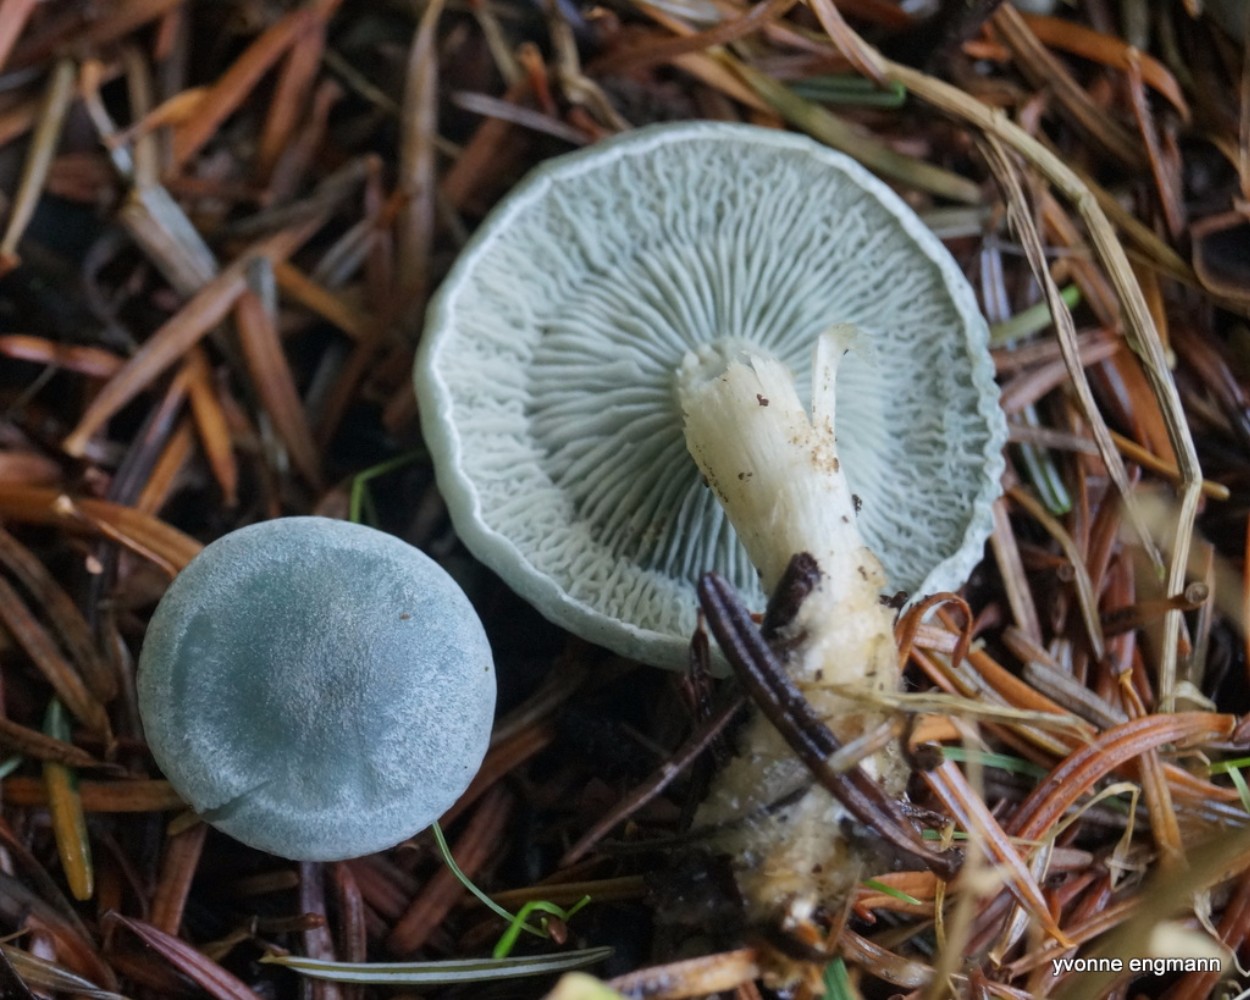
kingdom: Fungi
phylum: Basidiomycota
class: Agaricomycetes
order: Agaricales
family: Tricholomataceae
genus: Clitocybe
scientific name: Clitocybe odora
